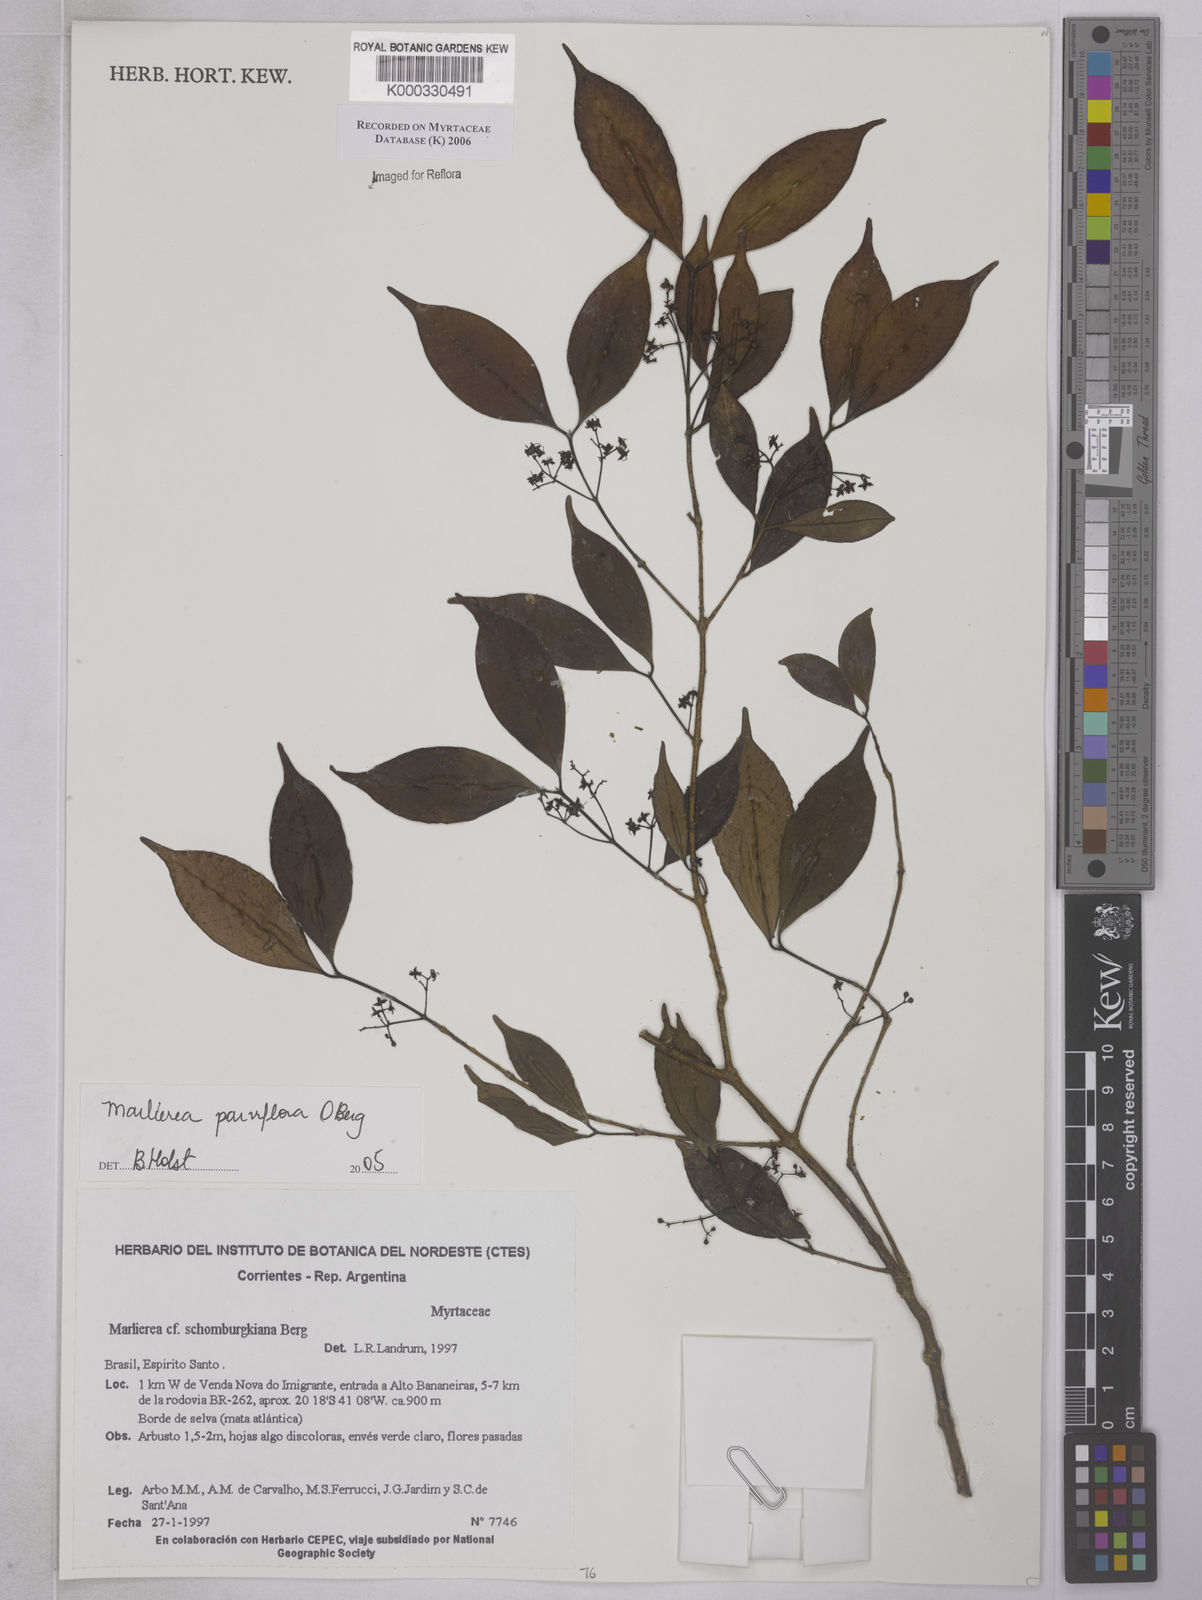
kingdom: Plantae
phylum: Tracheophyta
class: Magnoliopsida
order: Myrtales
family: Myrtaceae
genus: Marlierea
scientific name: Marlierea
